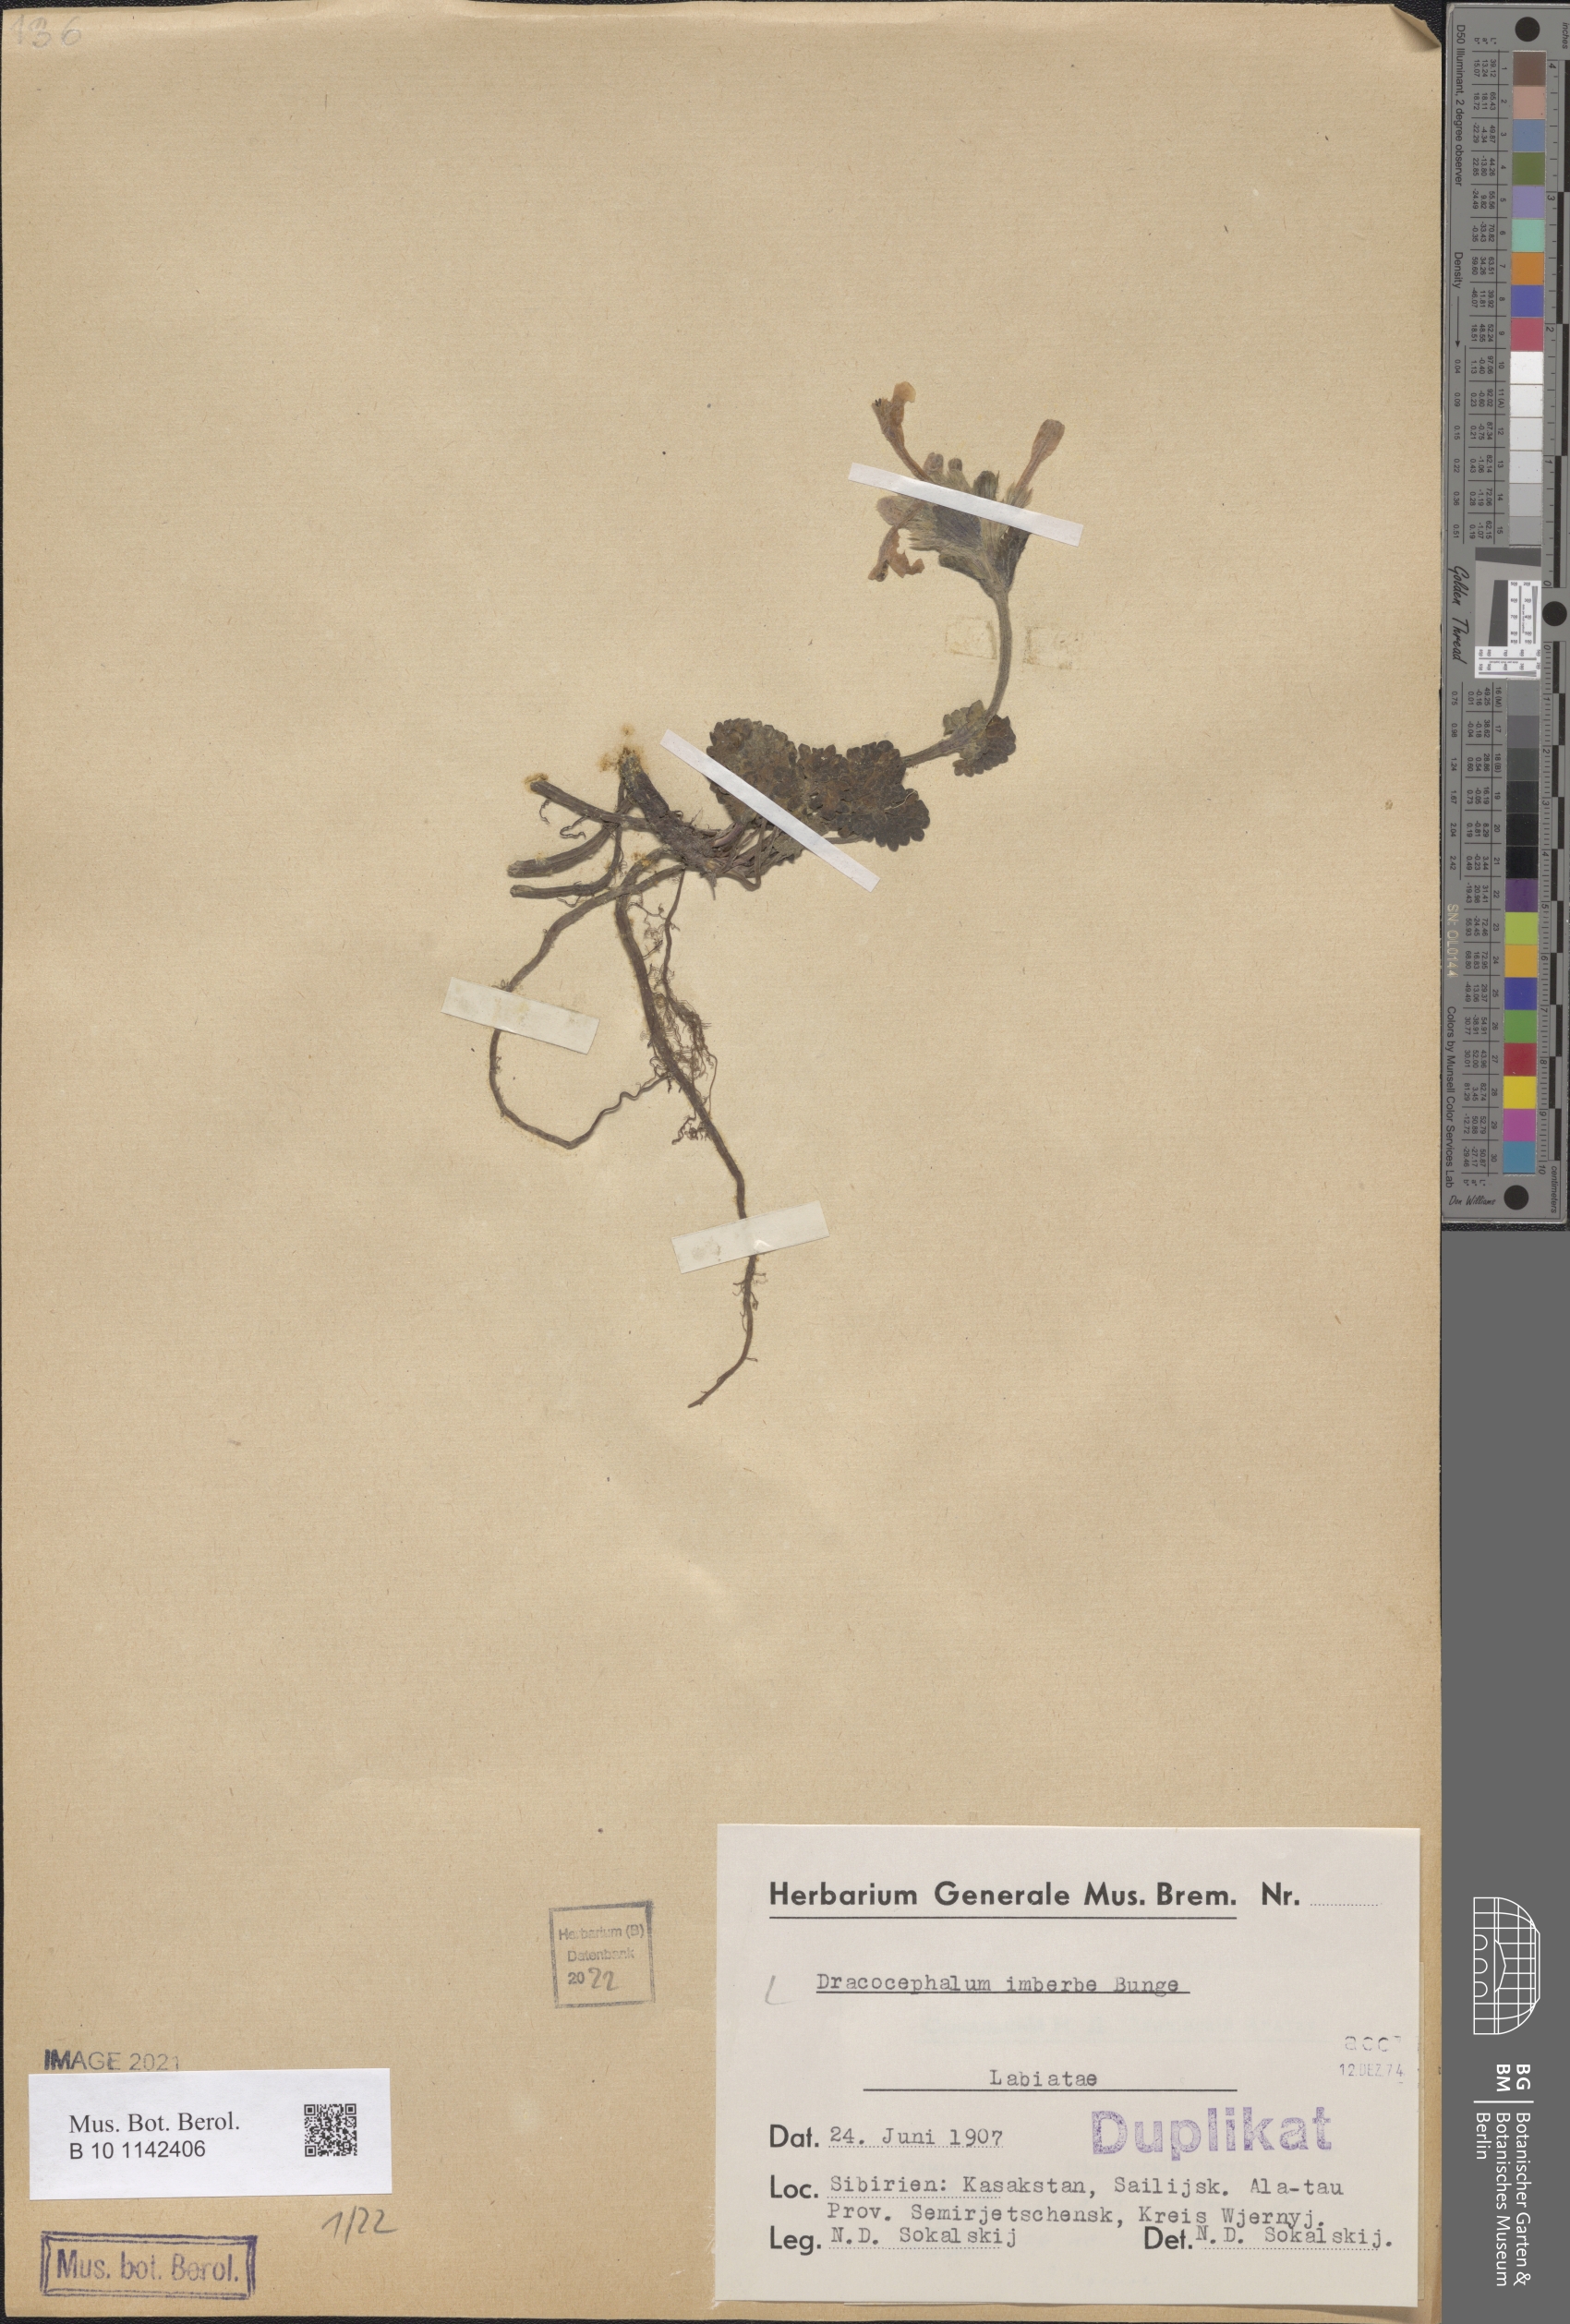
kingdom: Plantae
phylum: Tracheophyta
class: Magnoliopsida
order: Lamiales
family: Lamiaceae
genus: Dracocephalum
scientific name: Dracocephalum imberbe
